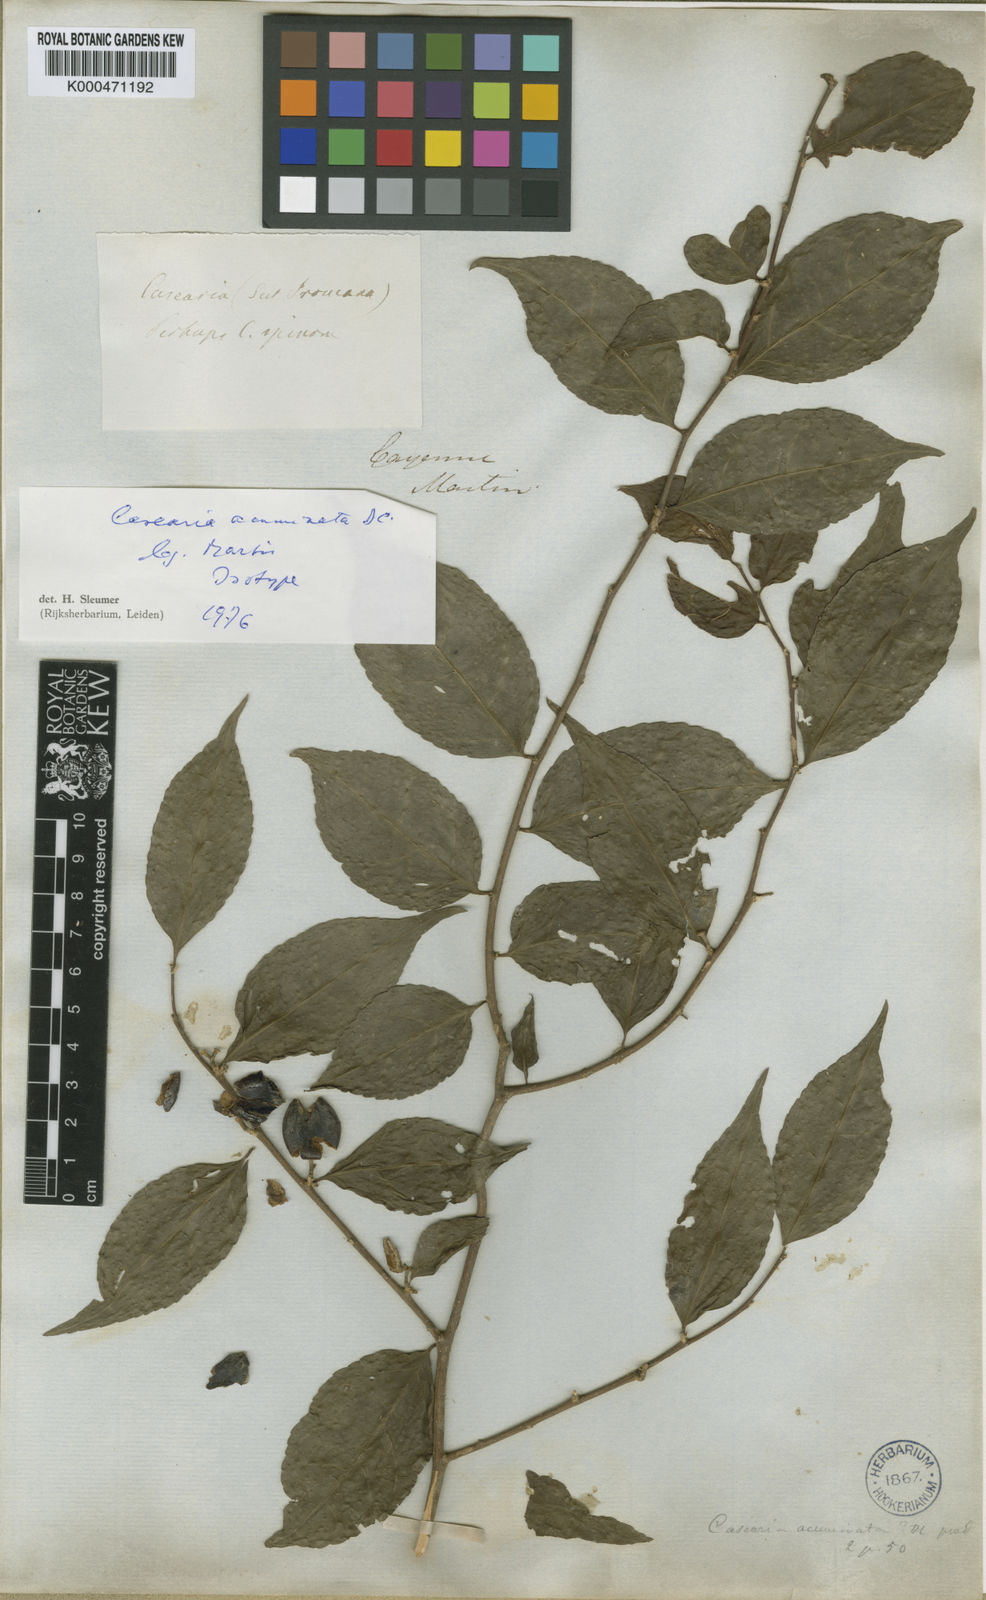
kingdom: Plantae
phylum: Tracheophyta
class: Magnoliopsida
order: Malpighiales
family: Salicaceae
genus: Casearia
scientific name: Casearia acuminata
